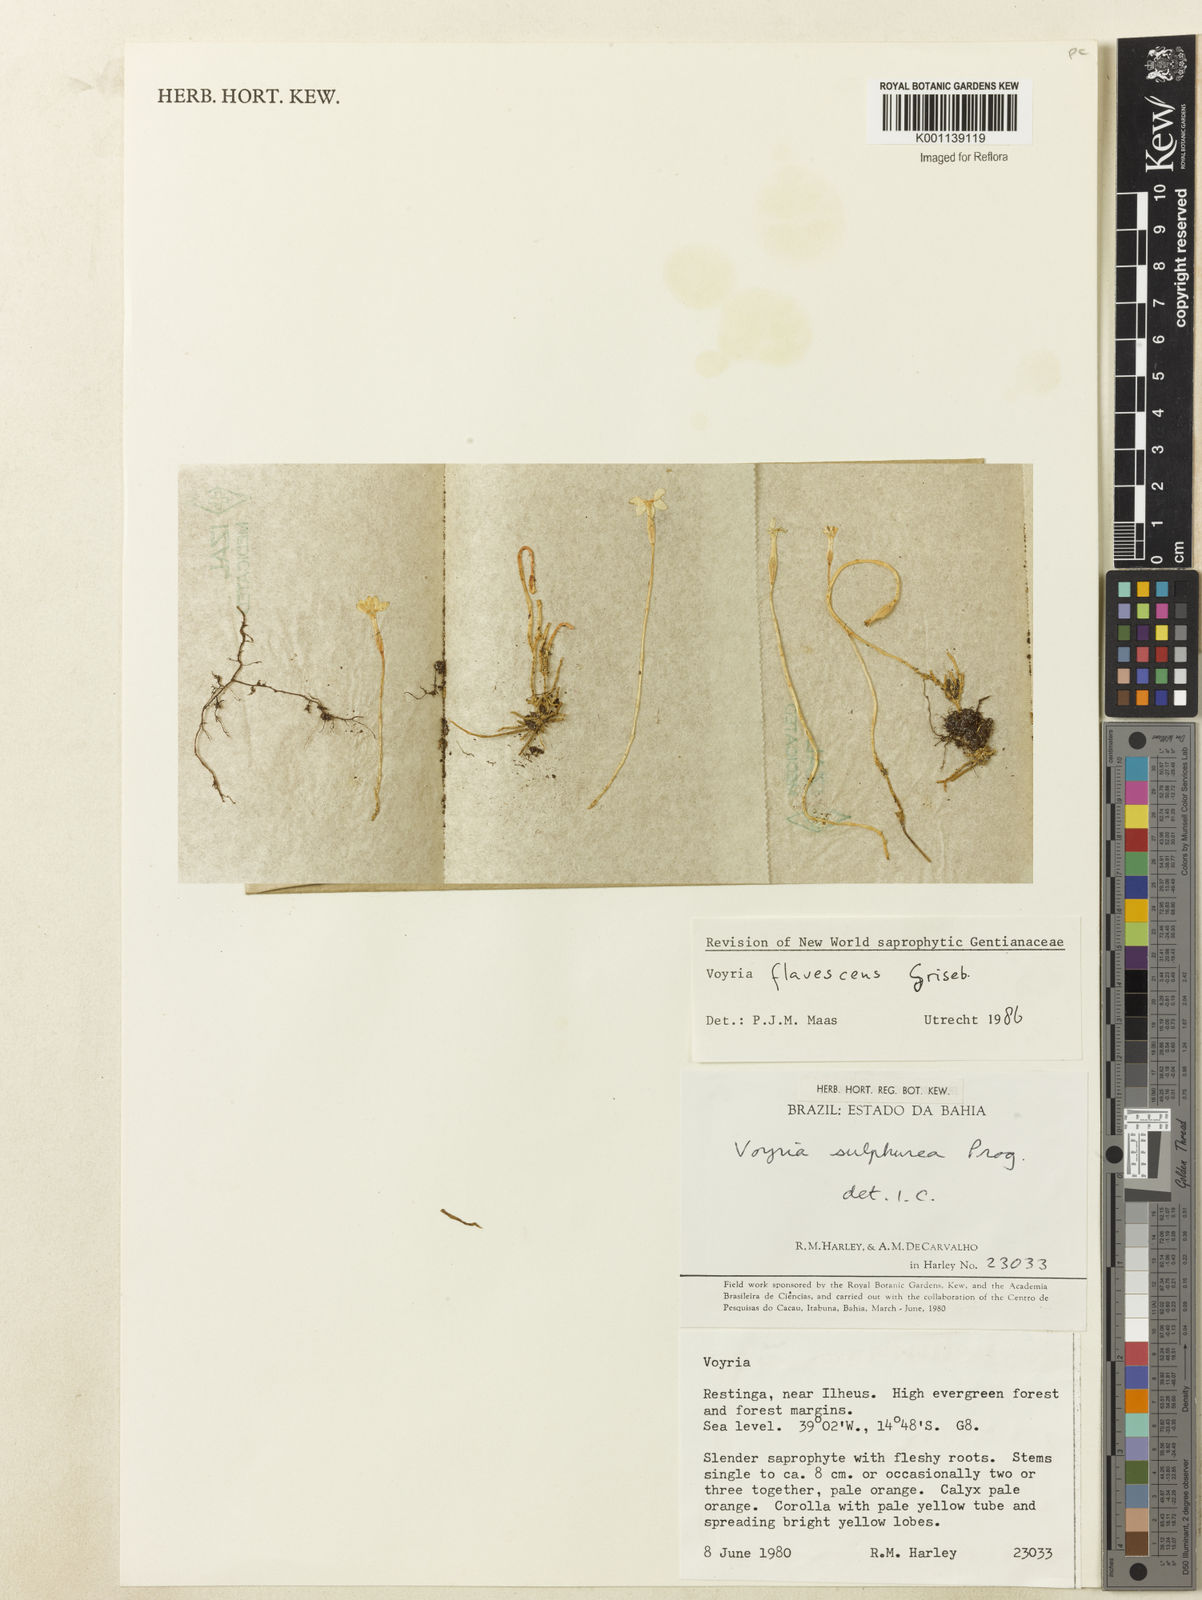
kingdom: Plantae
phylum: Tracheophyta
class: Magnoliopsida
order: Gentianales
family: Gentianaceae
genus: Voyria
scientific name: Voyria flavescens
